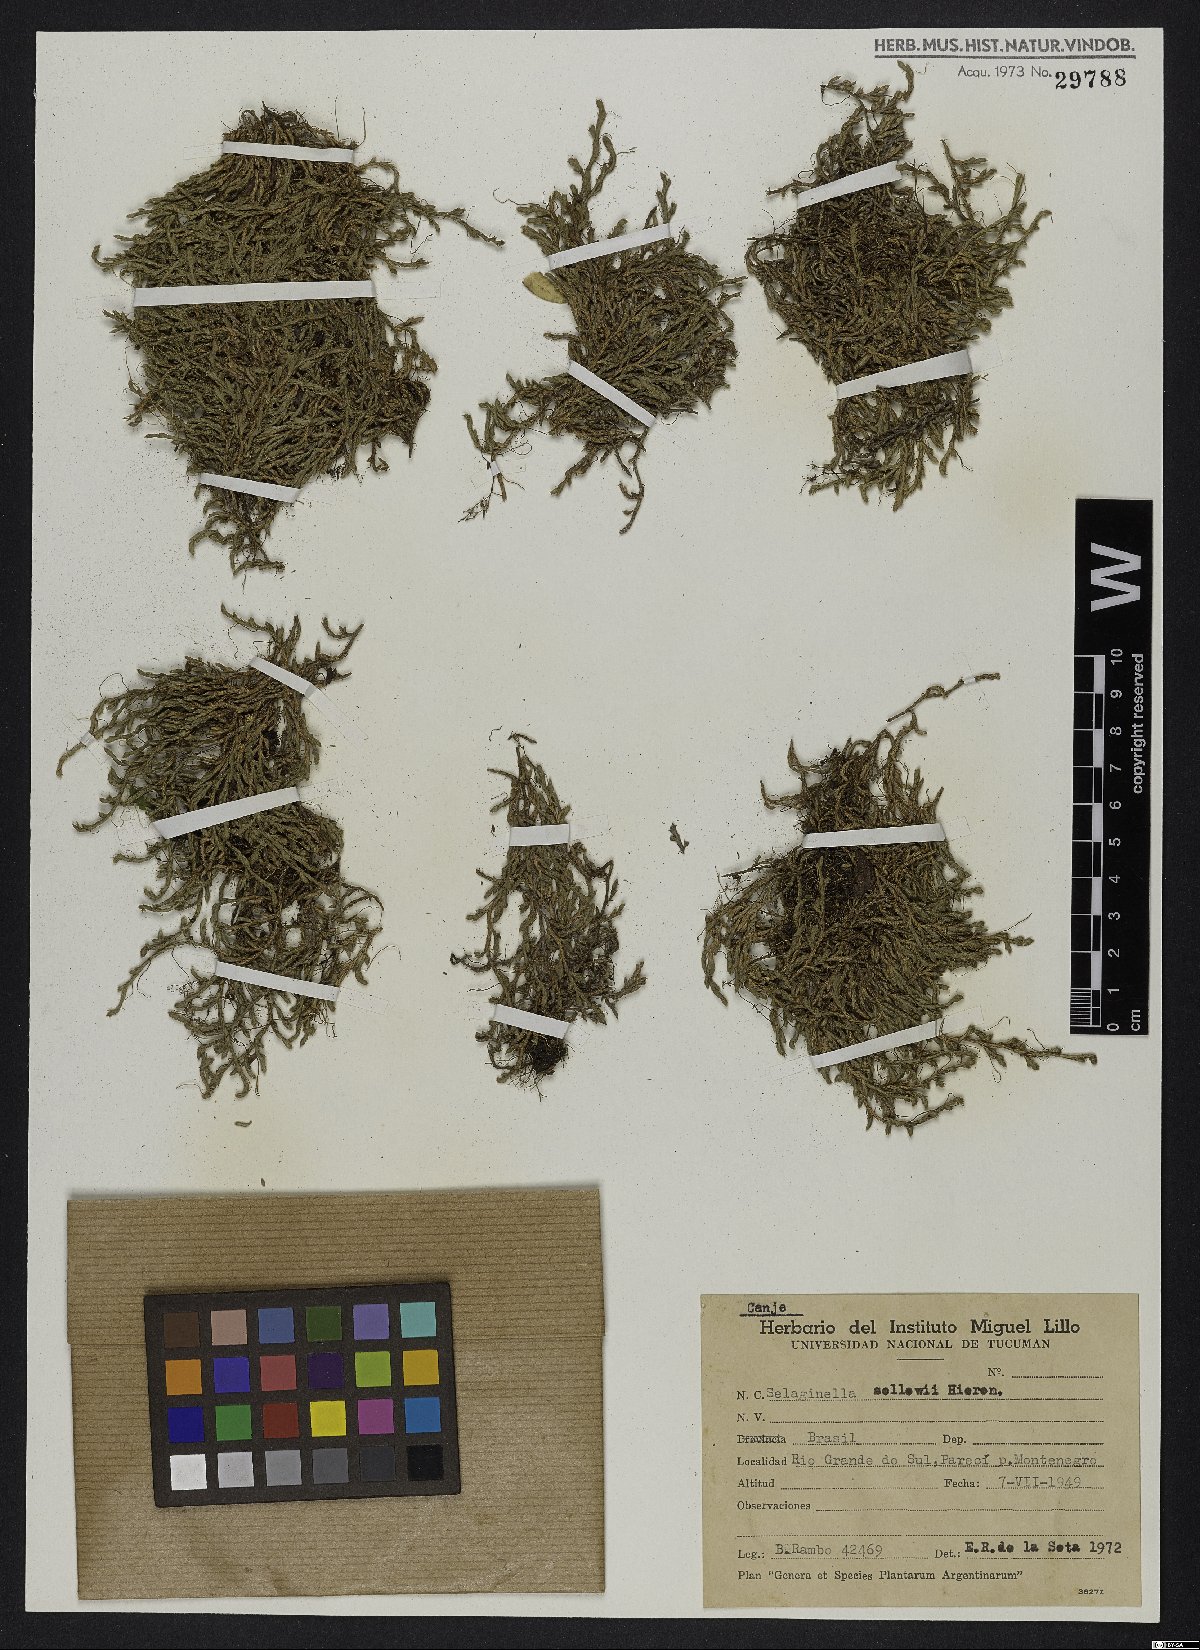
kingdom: Plantae
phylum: Tracheophyta
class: Lycopodiopsida
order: Selaginellales
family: Selaginellaceae
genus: Selaginella
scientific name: Selaginella sellowii
